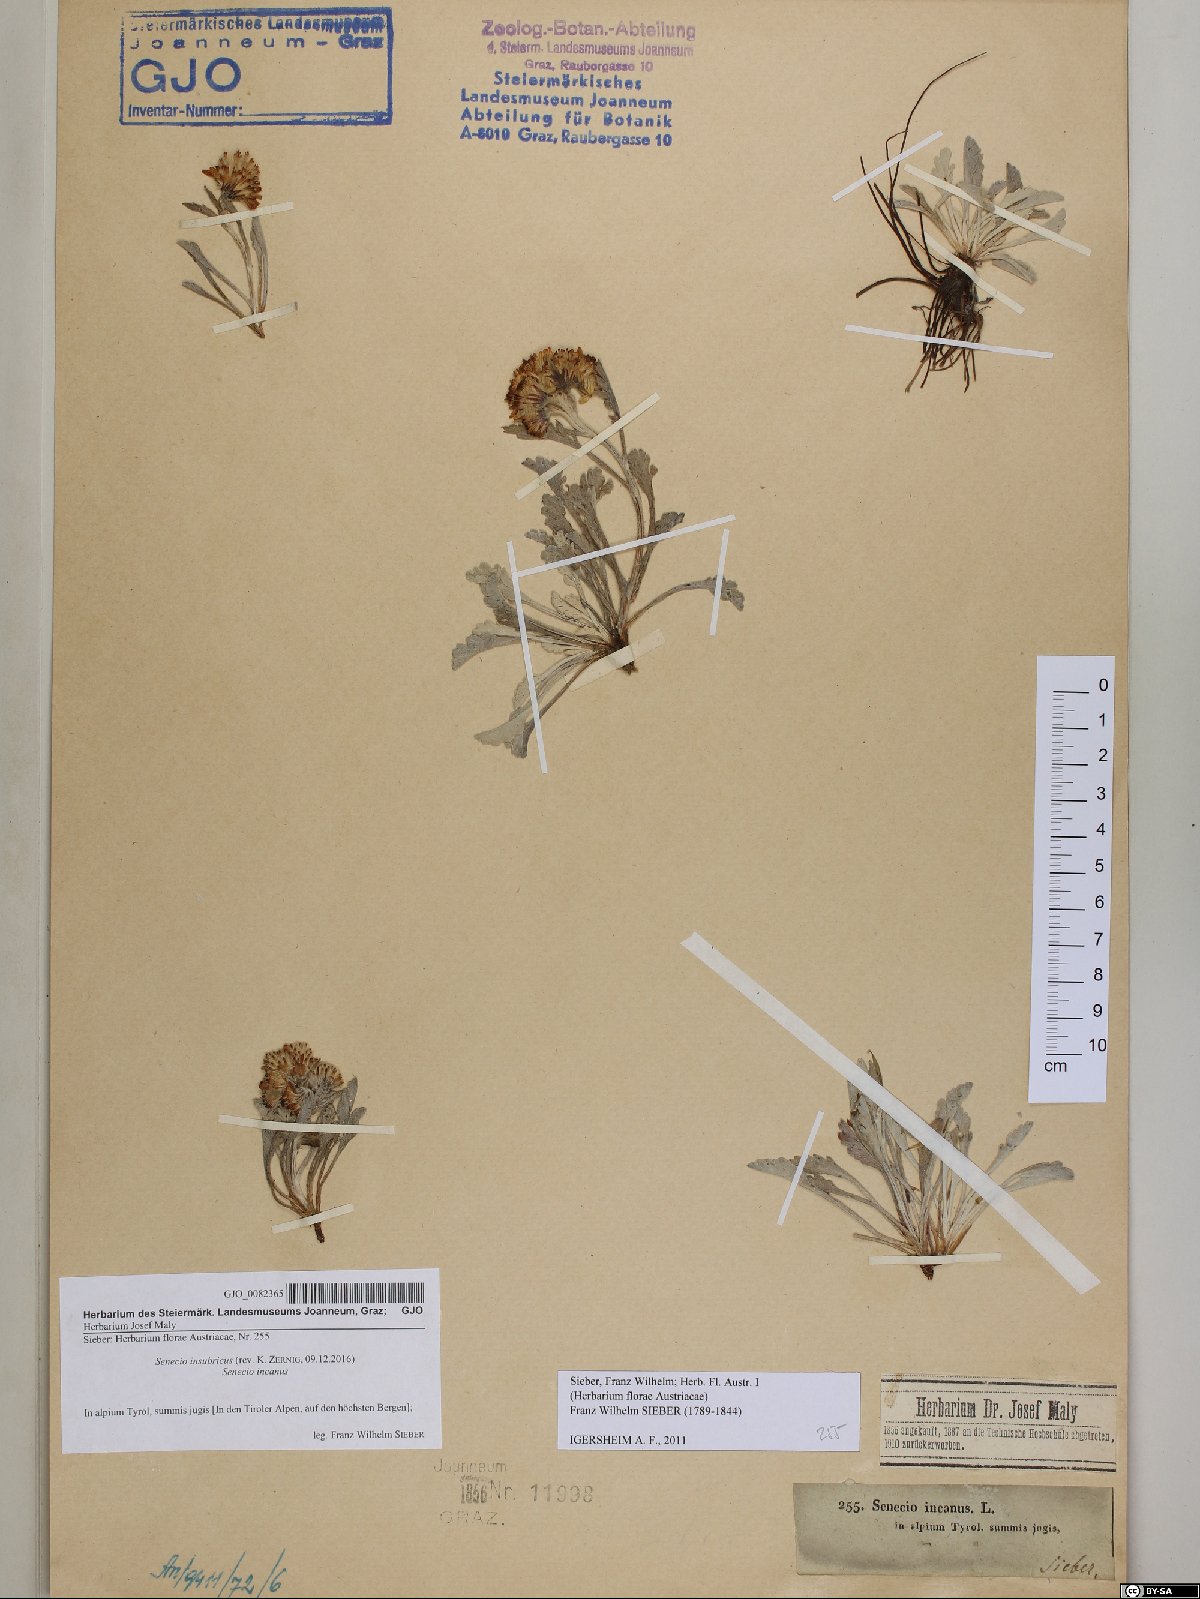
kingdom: Plantae
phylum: Tracheophyta
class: Magnoliopsida
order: Asterales
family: Asteraceae
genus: Jacobaea
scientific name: Jacobaea insubrica
